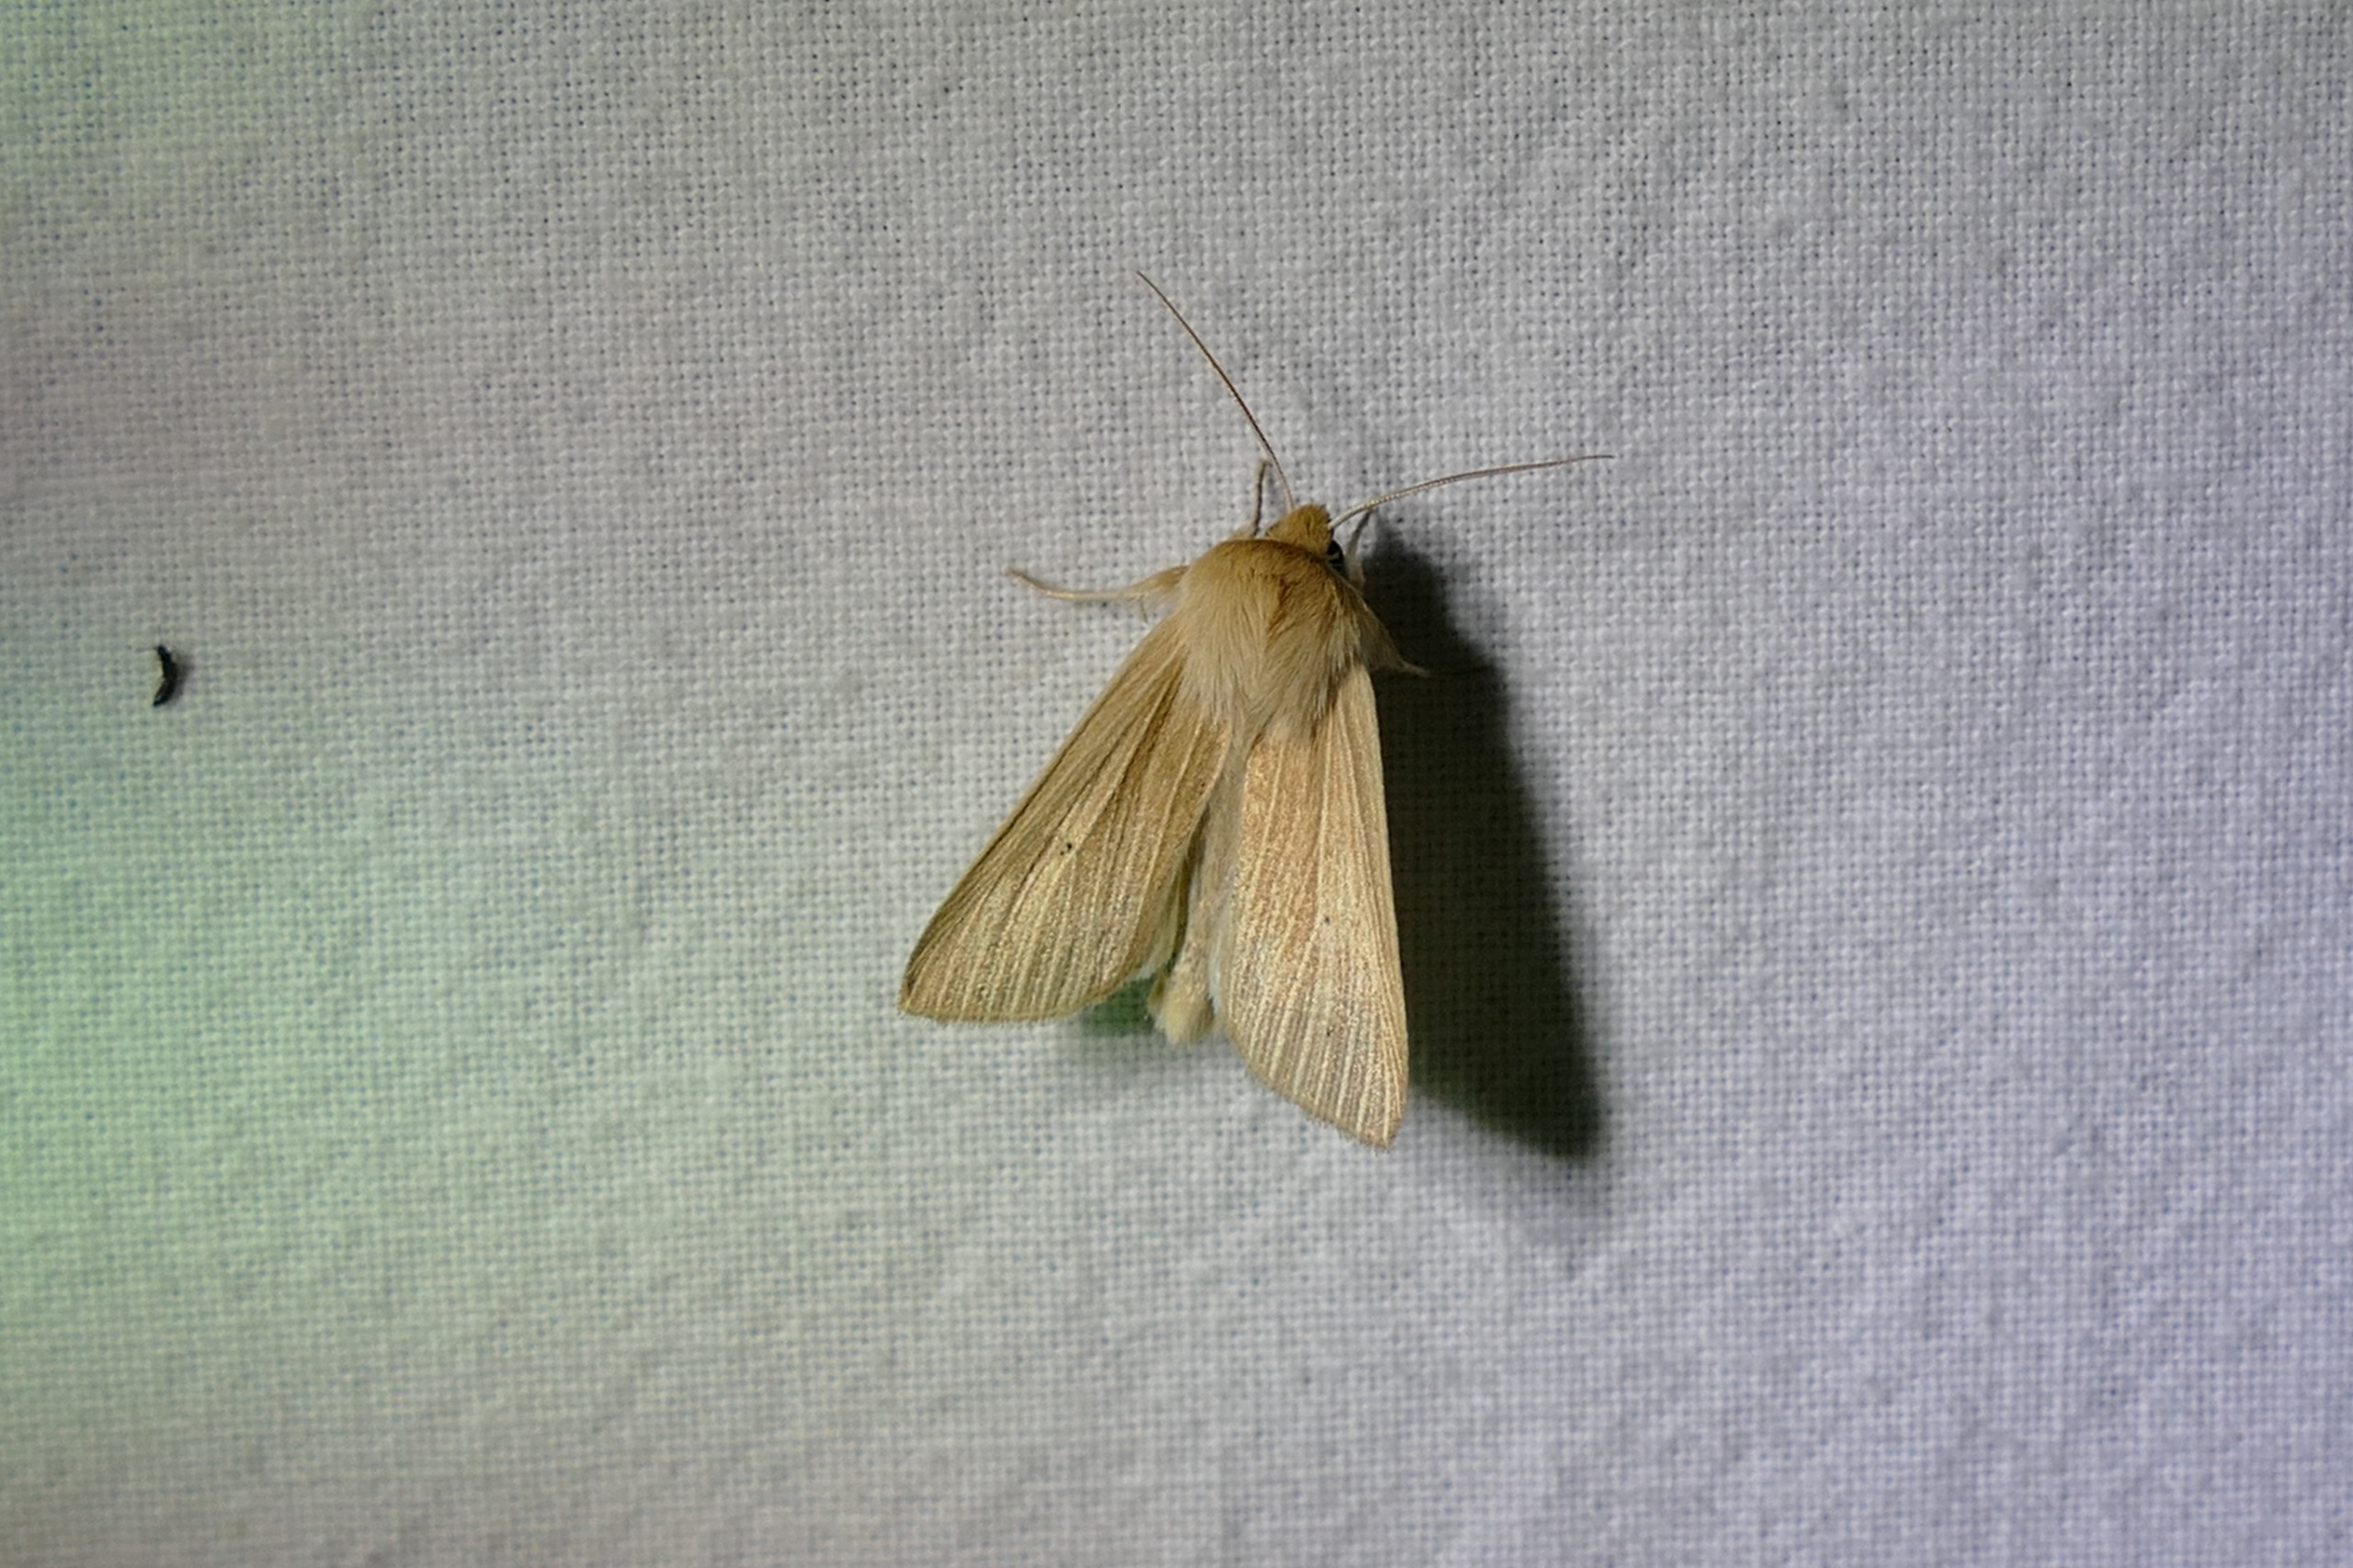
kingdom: Animalia
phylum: Arthropoda
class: Insecta
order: Lepidoptera
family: Noctuidae
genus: Mythimna
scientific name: Mythimna pallens
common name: Halmugle
